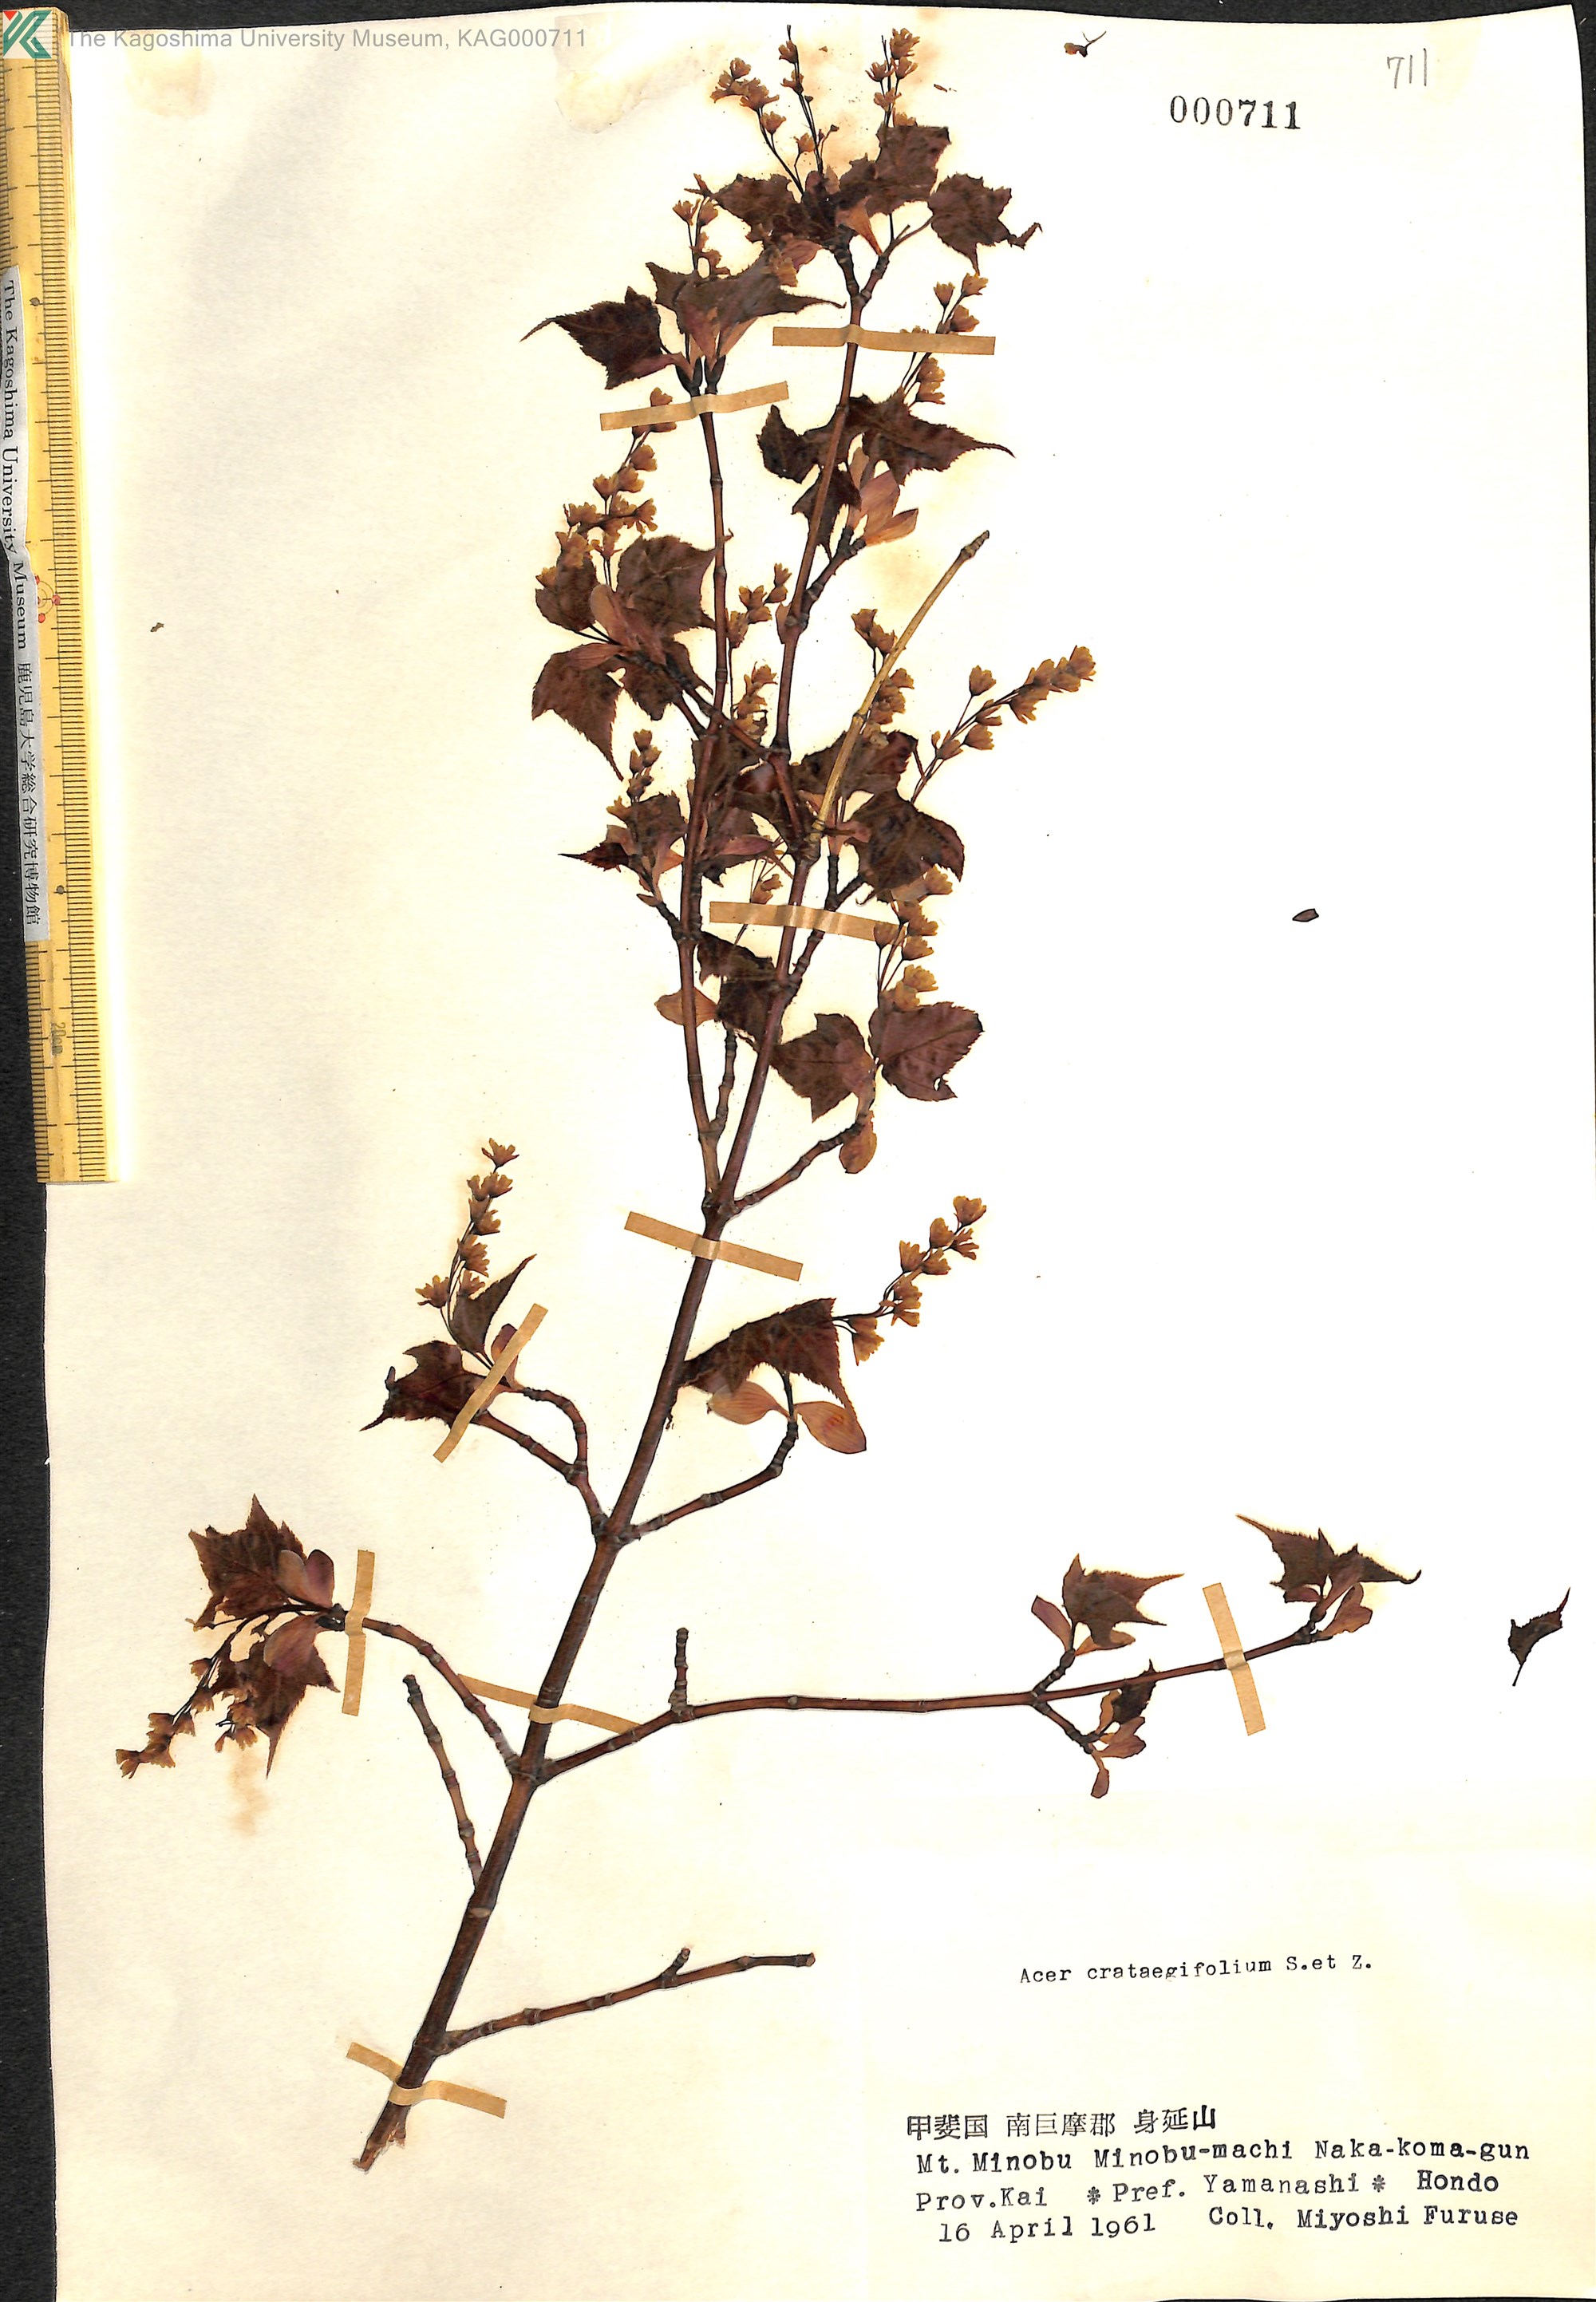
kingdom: Plantae
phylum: Tracheophyta
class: Magnoliopsida
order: Sapindales
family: Sapindaceae
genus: Acer
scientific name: Acer crataegifolium
